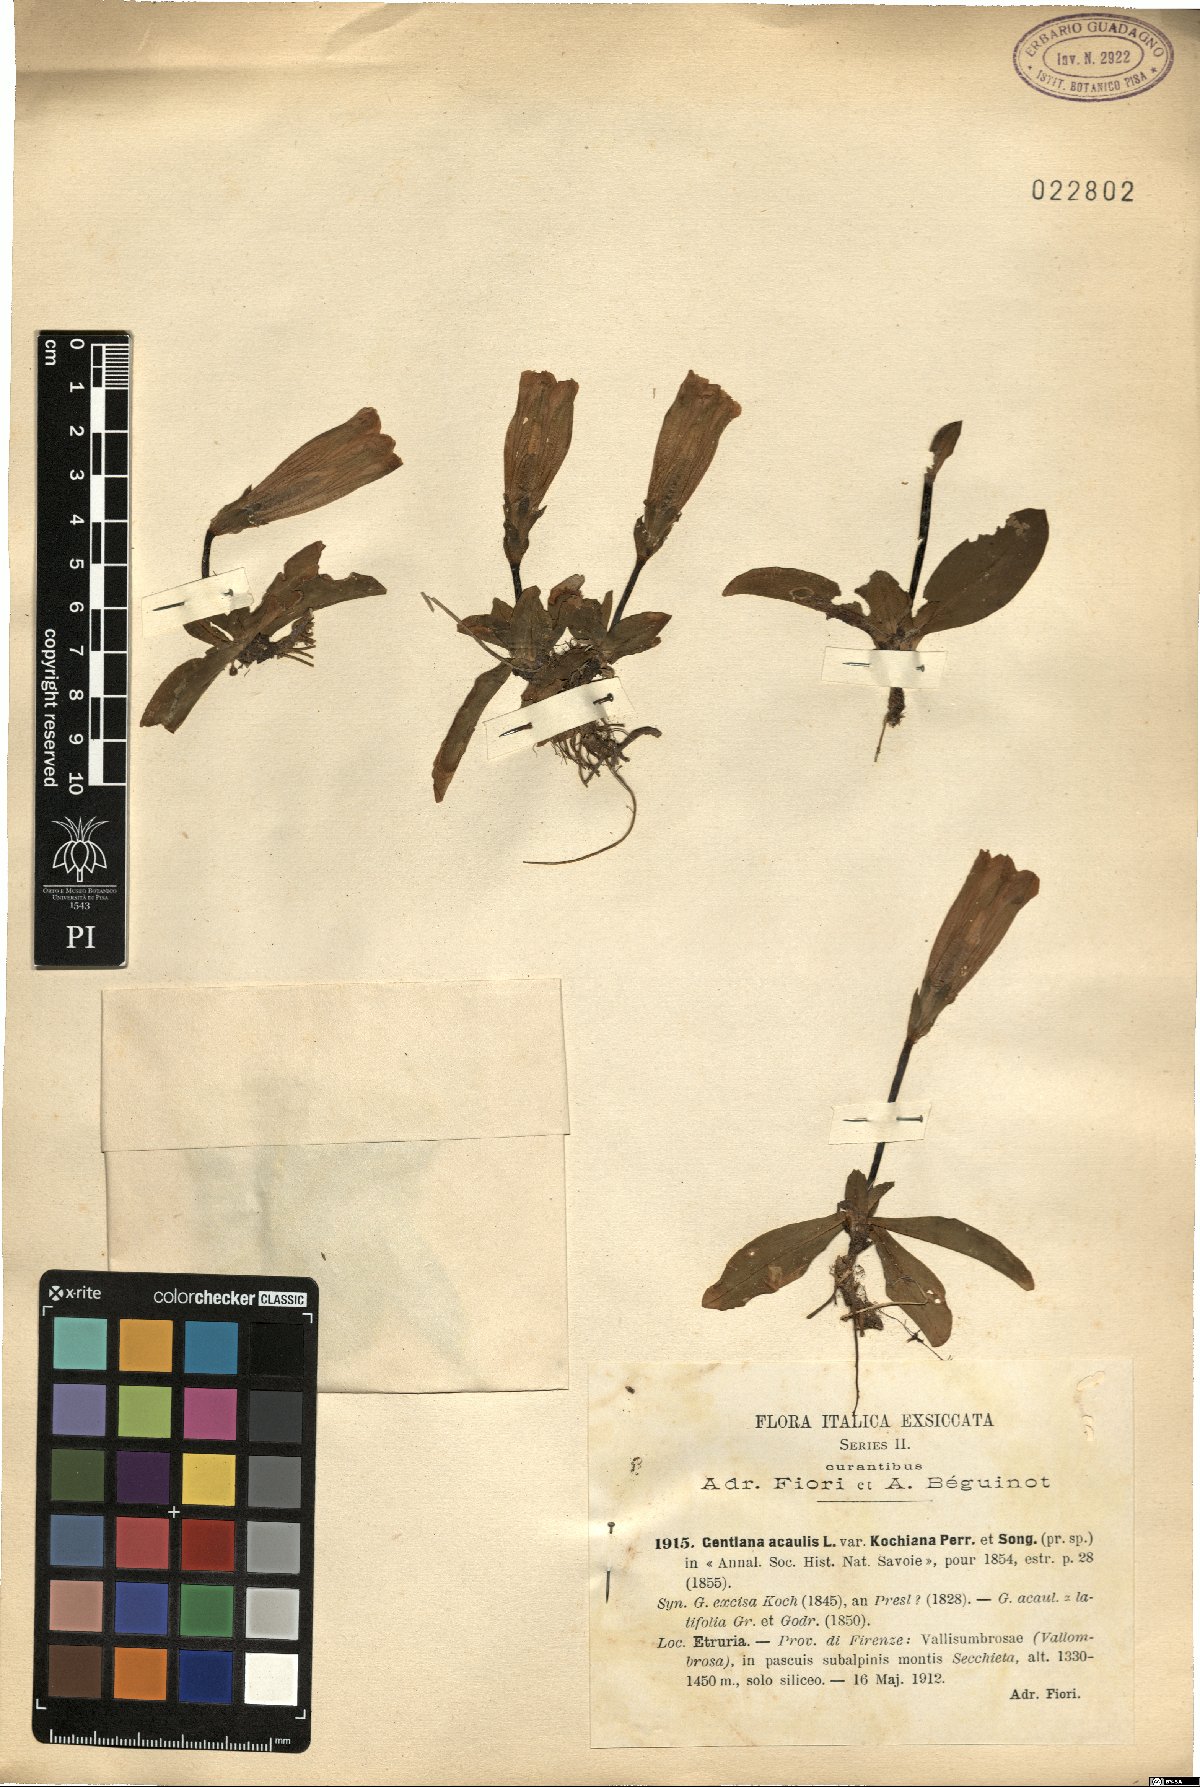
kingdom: Plantae
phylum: Tracheophyta
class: Magnoliopsida
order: Gentianales
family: Gentianaceae
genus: Gentiana
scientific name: Gentiana acaulis
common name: Trumpet gentian
